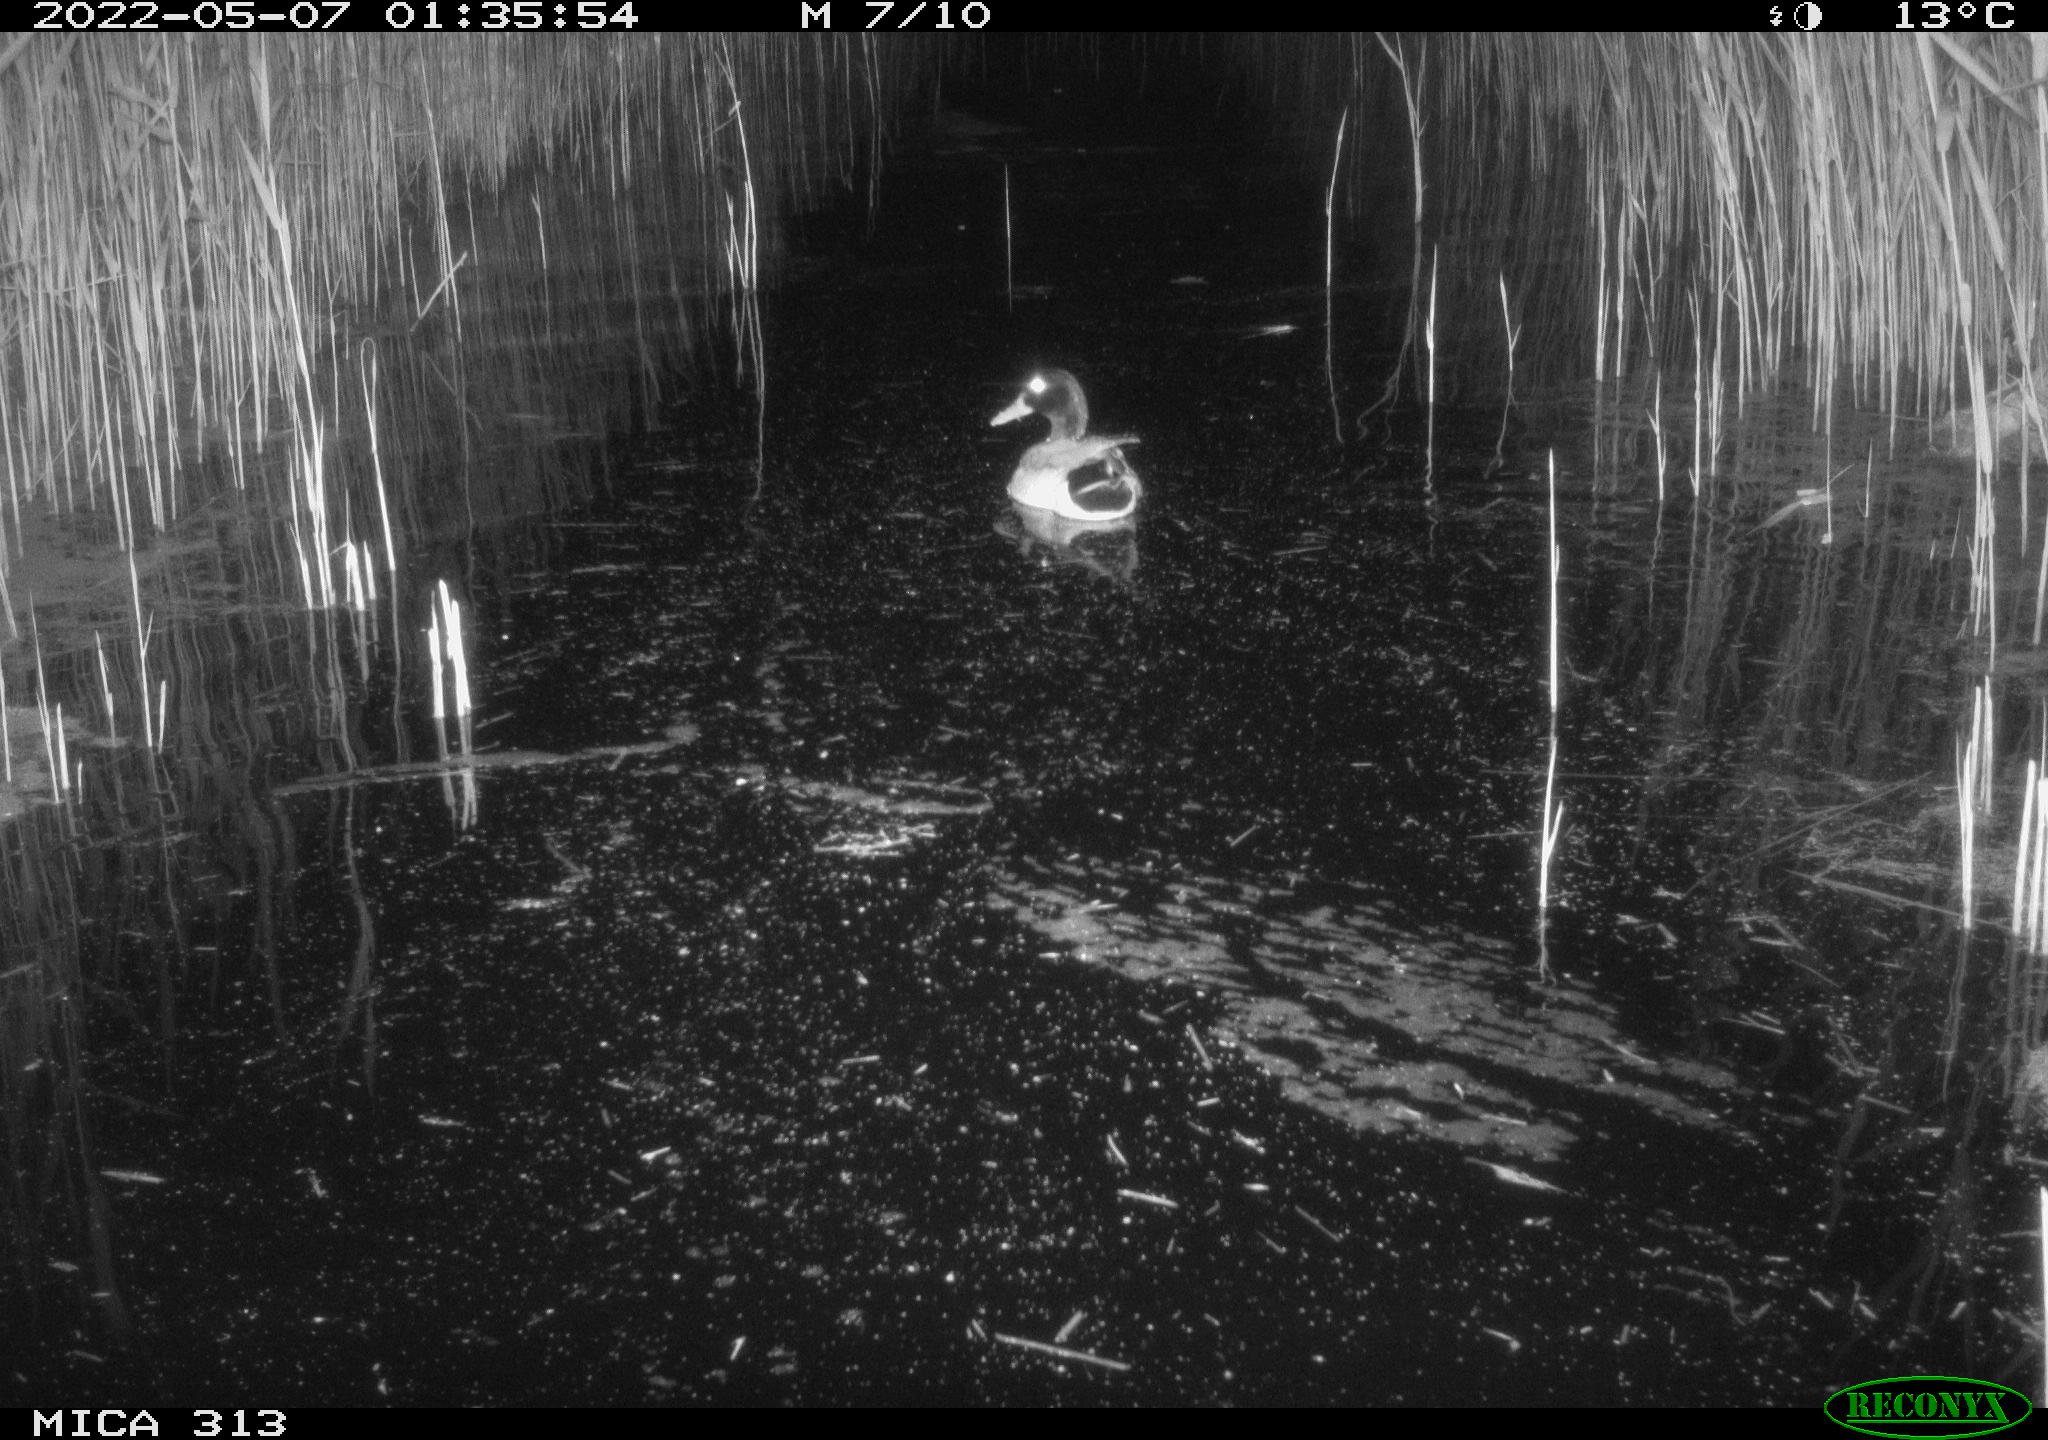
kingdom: Animalia
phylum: Chordata
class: Aves
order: Anseriformes
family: Anatidae
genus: Anas
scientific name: Anas platyrhynchos
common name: Mallard
